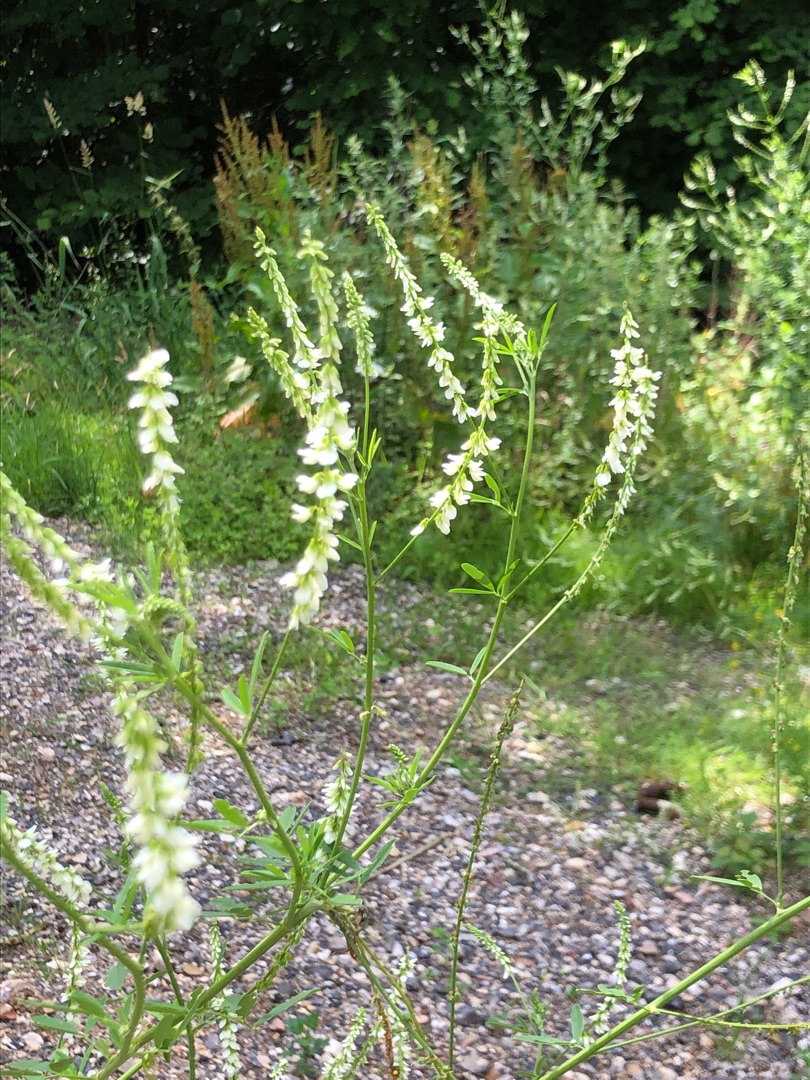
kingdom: Plantae
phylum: Tracheophyta
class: Magnoliopsida
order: Fabales
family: Fabaceae
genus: Melilotus
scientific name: Melilotus albus
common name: Hvid stenkløver
